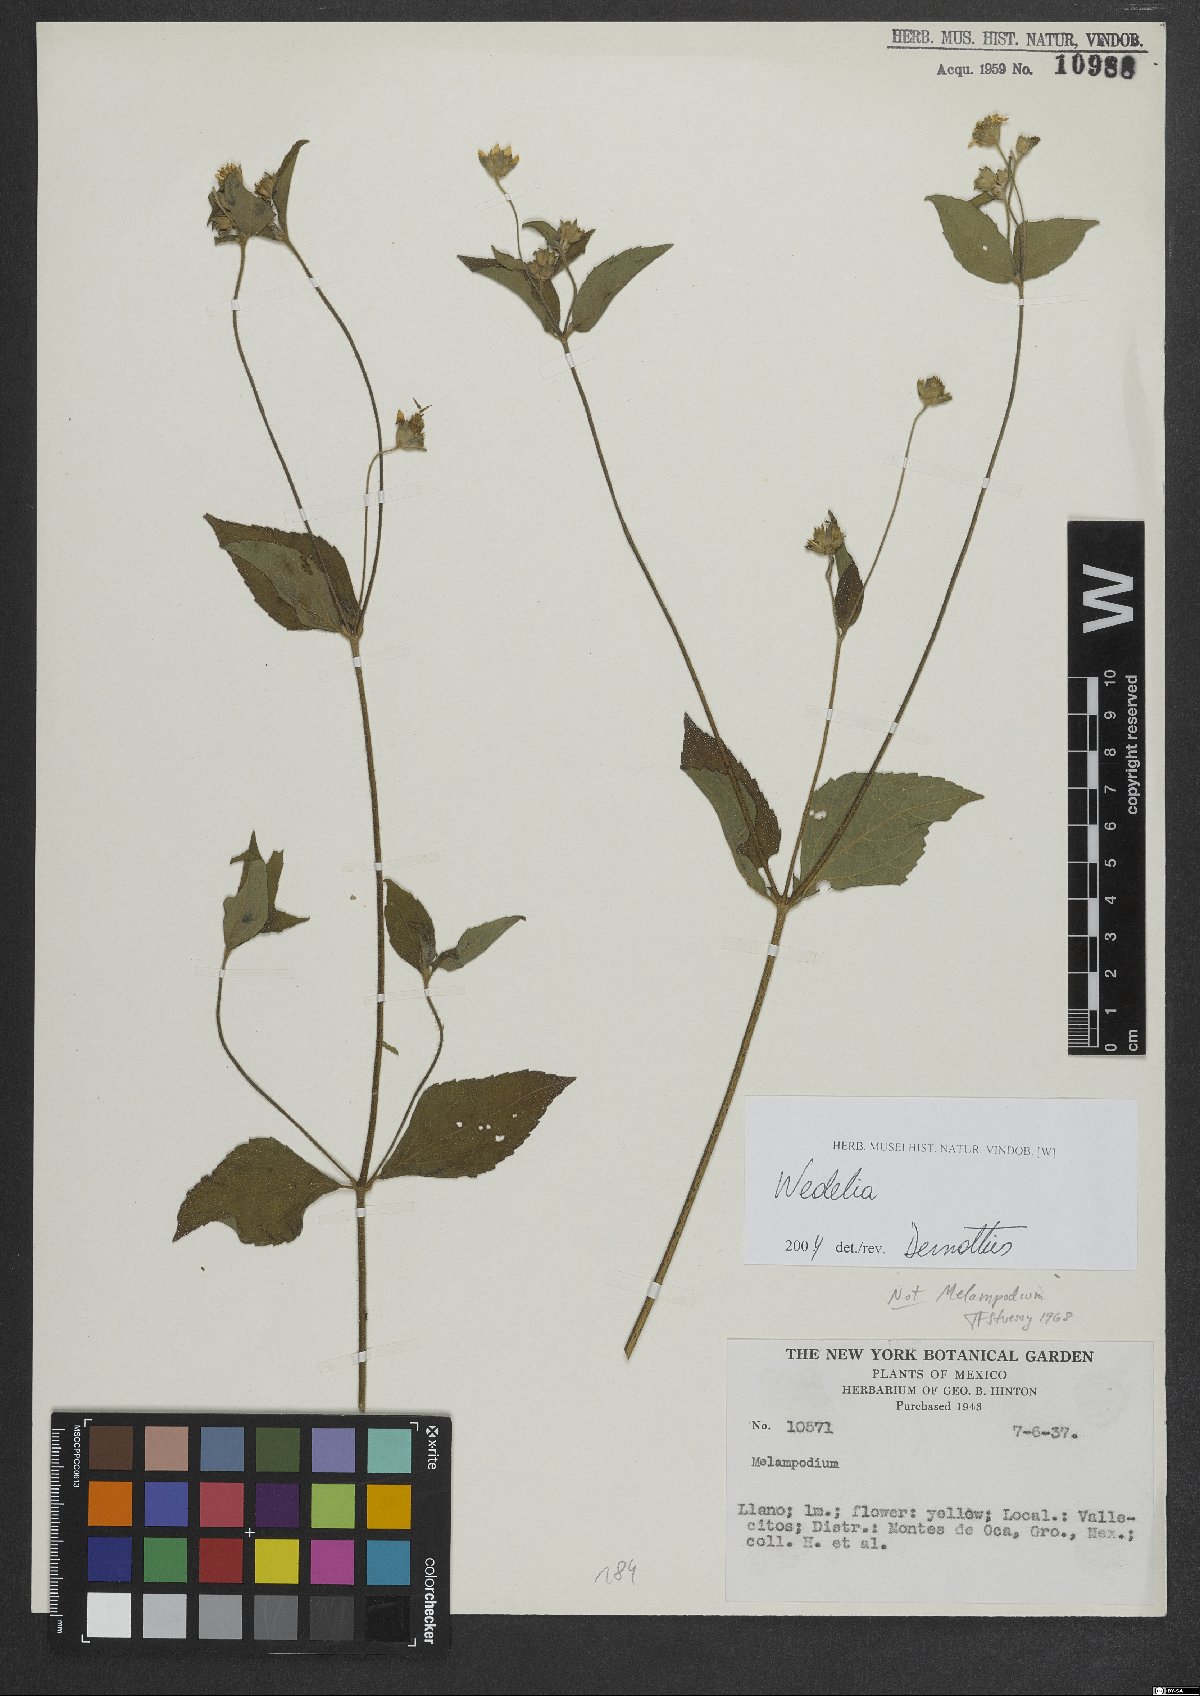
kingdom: Plantae
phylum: Tracheophyta
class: Magnoliopsida
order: Asterales
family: Asteraceae
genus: Wedelia
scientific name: Wedelia
